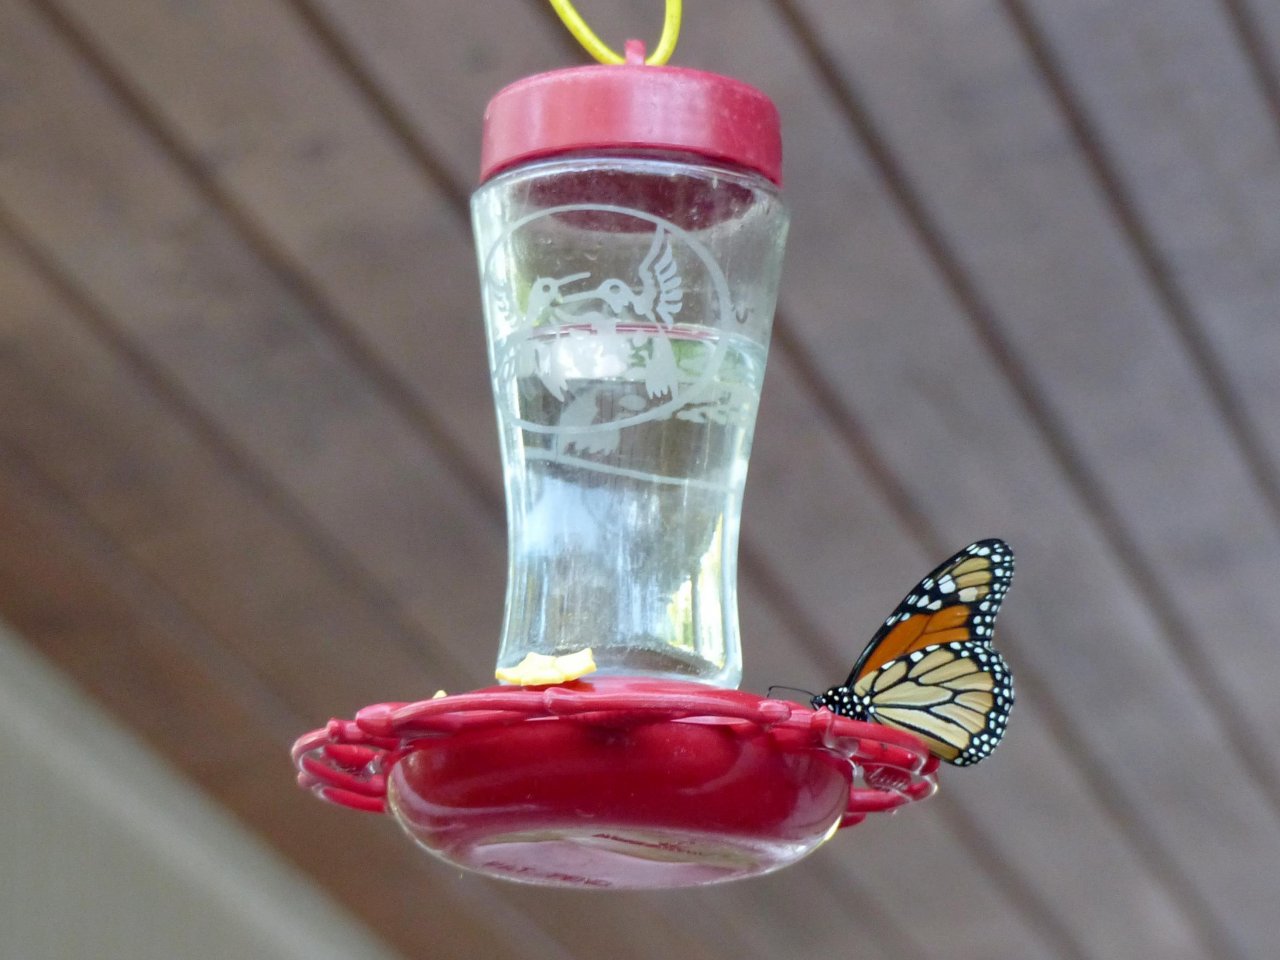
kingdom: Animalia
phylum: Arthropoda
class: Insecta
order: Lepidoptera
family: Nymphalidae
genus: Danaus
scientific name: Danaus plexippus
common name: Monarch
